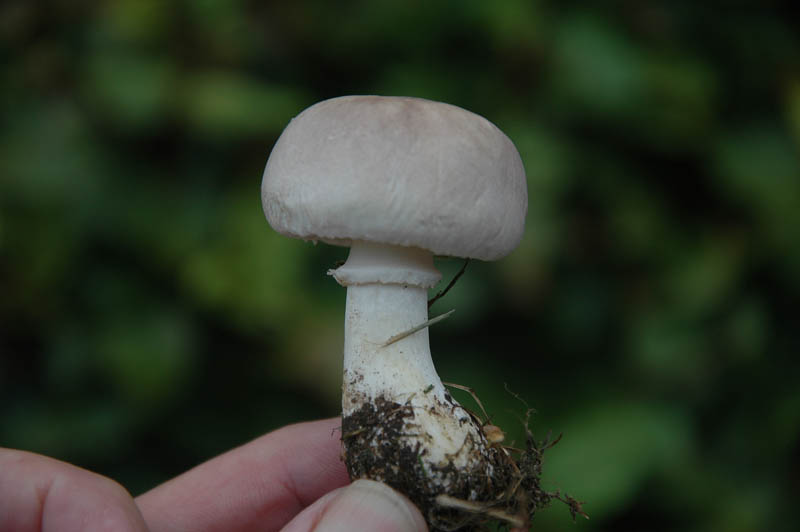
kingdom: Fungi
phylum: Basidiomycota
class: Agaricomycetes
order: Agaricales
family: Agaricaceae
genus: Leucoagaricus
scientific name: Leucoagaricus carneifolius
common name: grånende silkehat
